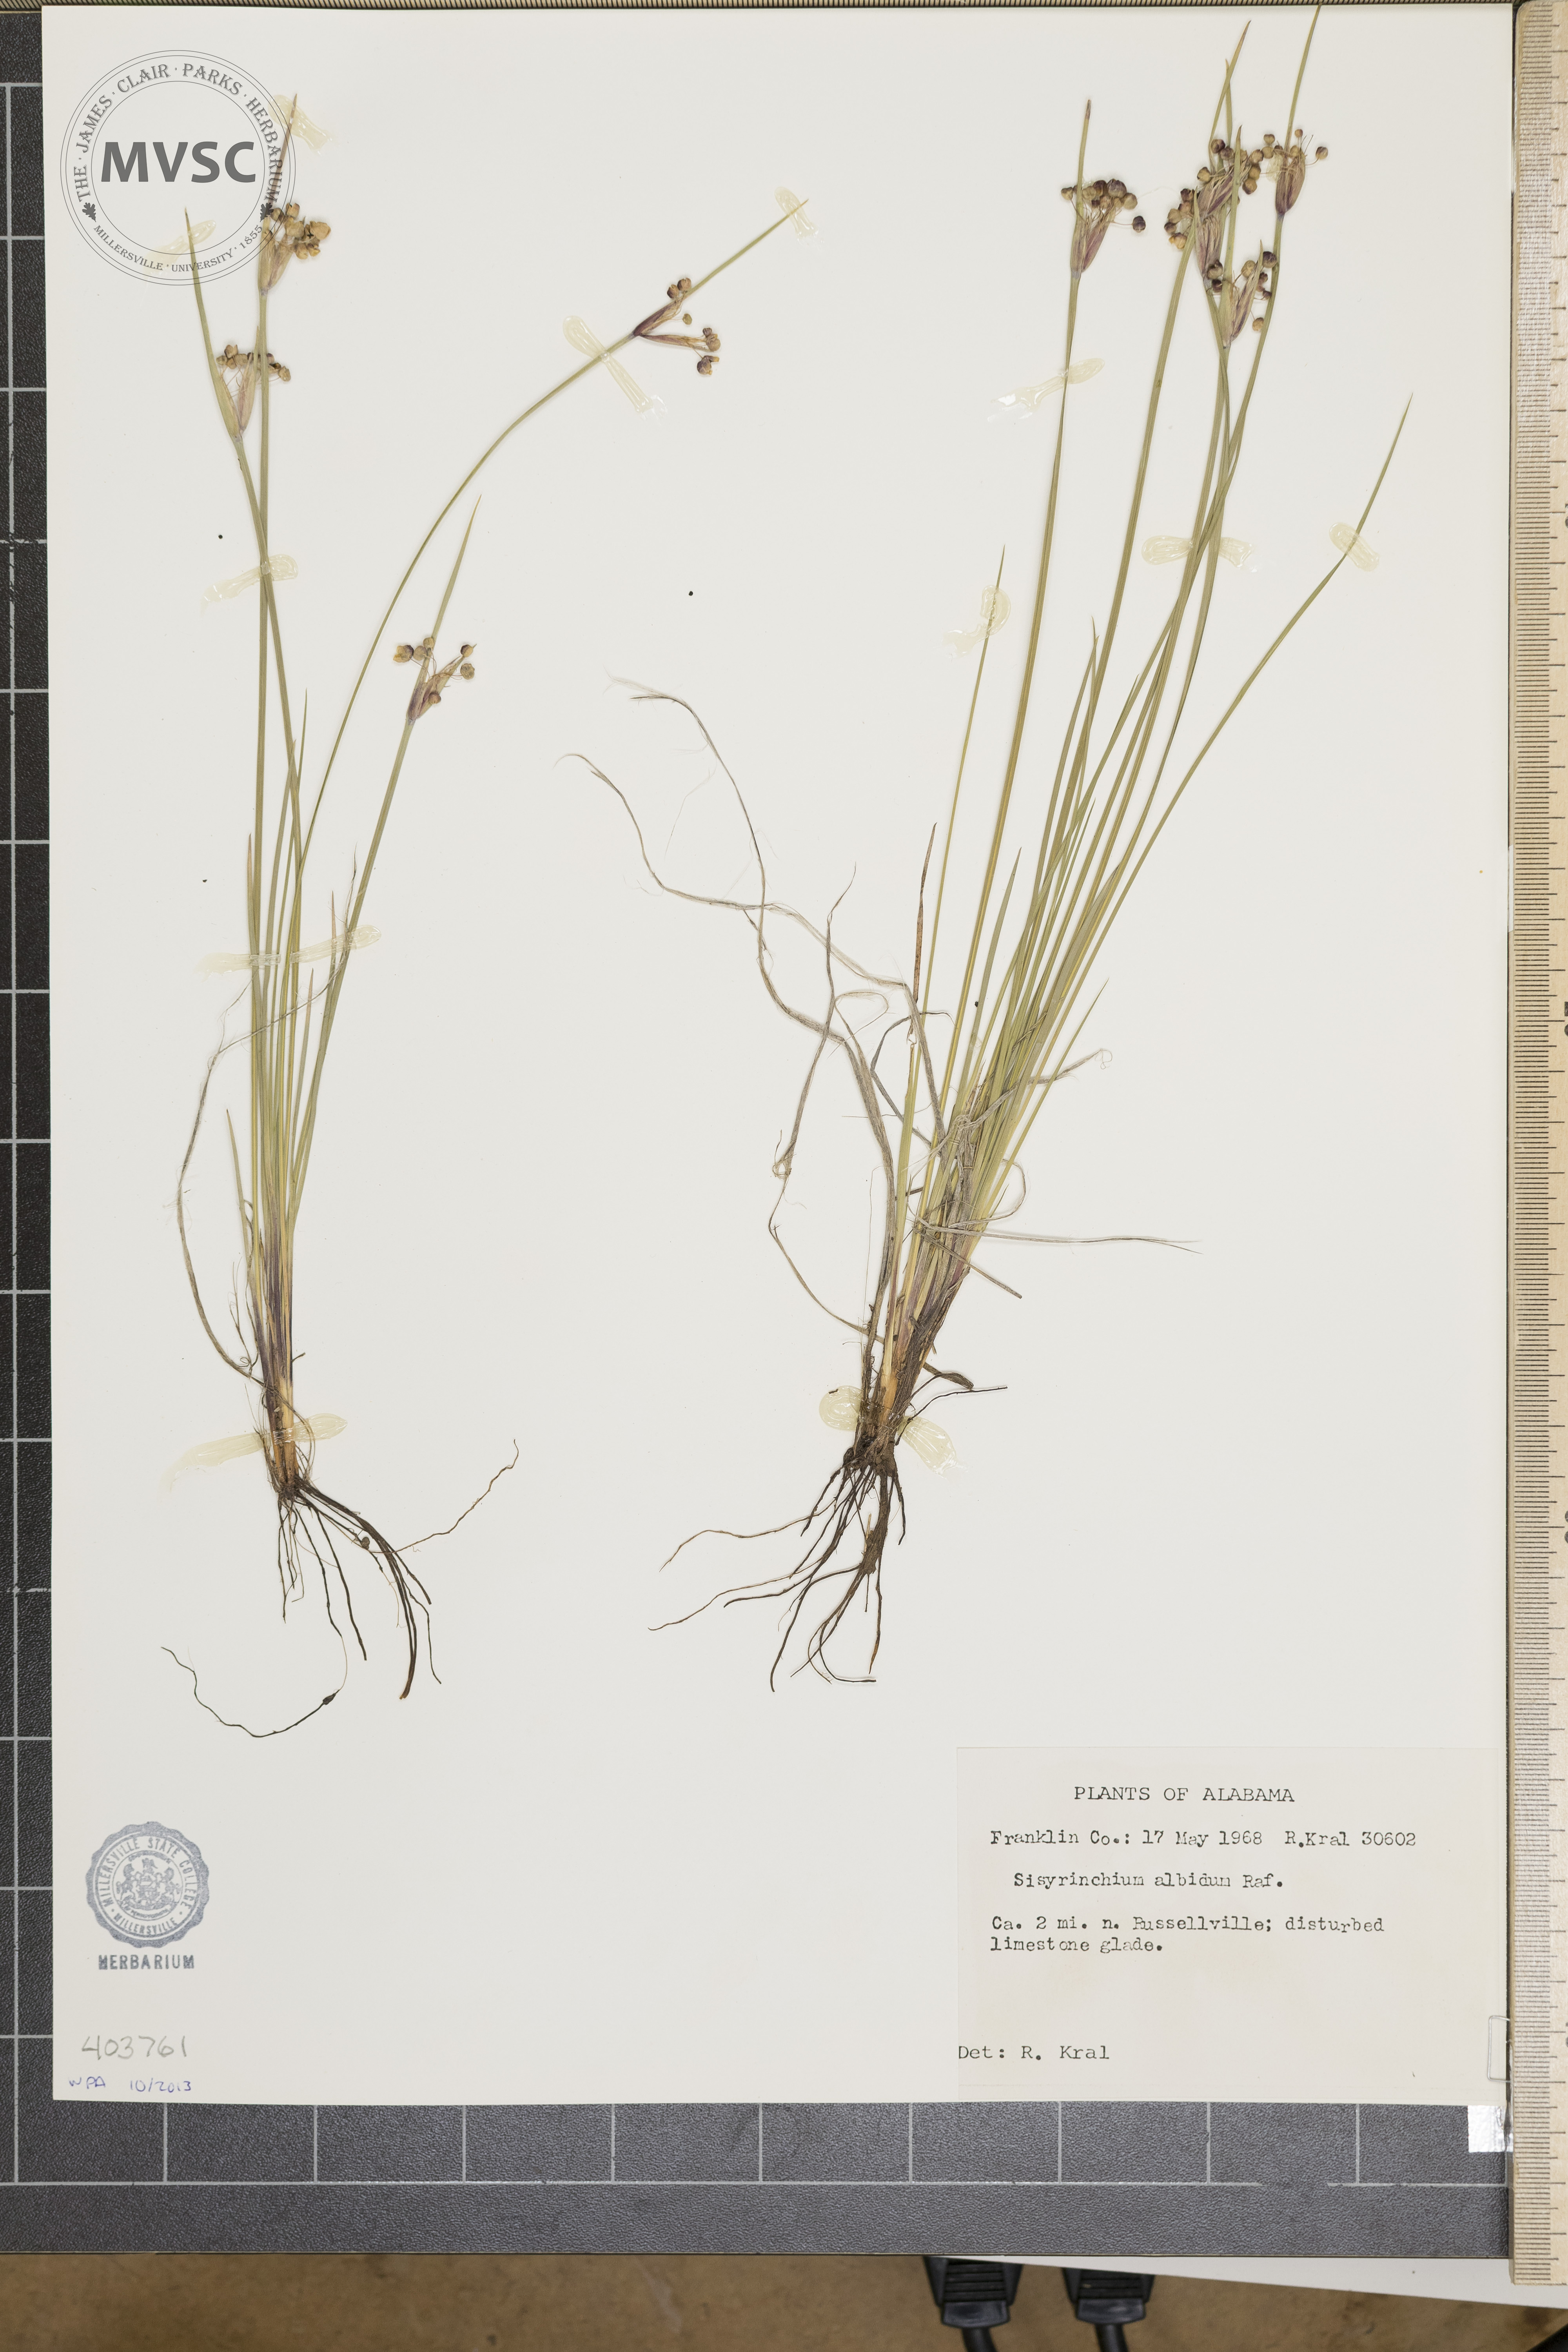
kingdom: Plantae
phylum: Tracheophyta
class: Liliopsida
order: Asparagales
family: Iridaceae
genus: Sisyrinchium
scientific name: Sisyrinchium albidum
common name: Pale blue-eyed-grass
